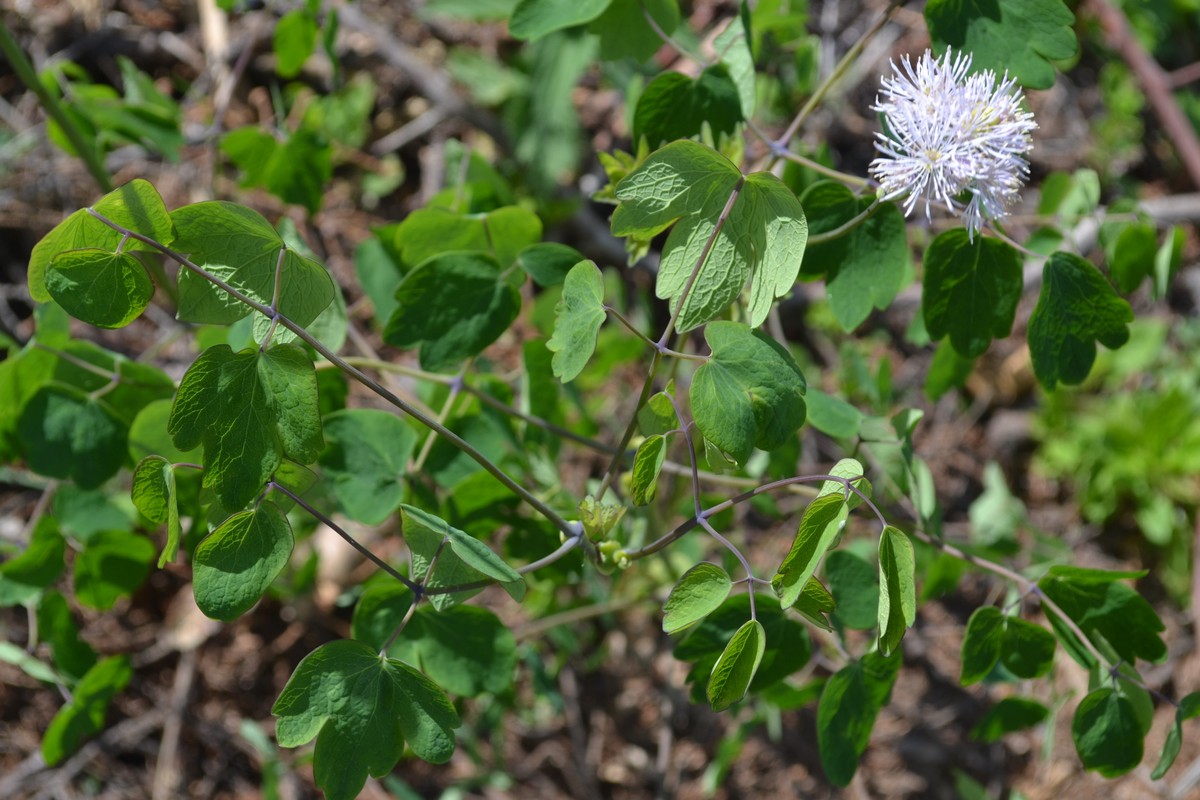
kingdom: Plantae
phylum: Tracheophyta
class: Magnoliopsida
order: Ranunculales
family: Ranunculaceae
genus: Thalictrum
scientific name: Thalictrum aquilegiifolium
